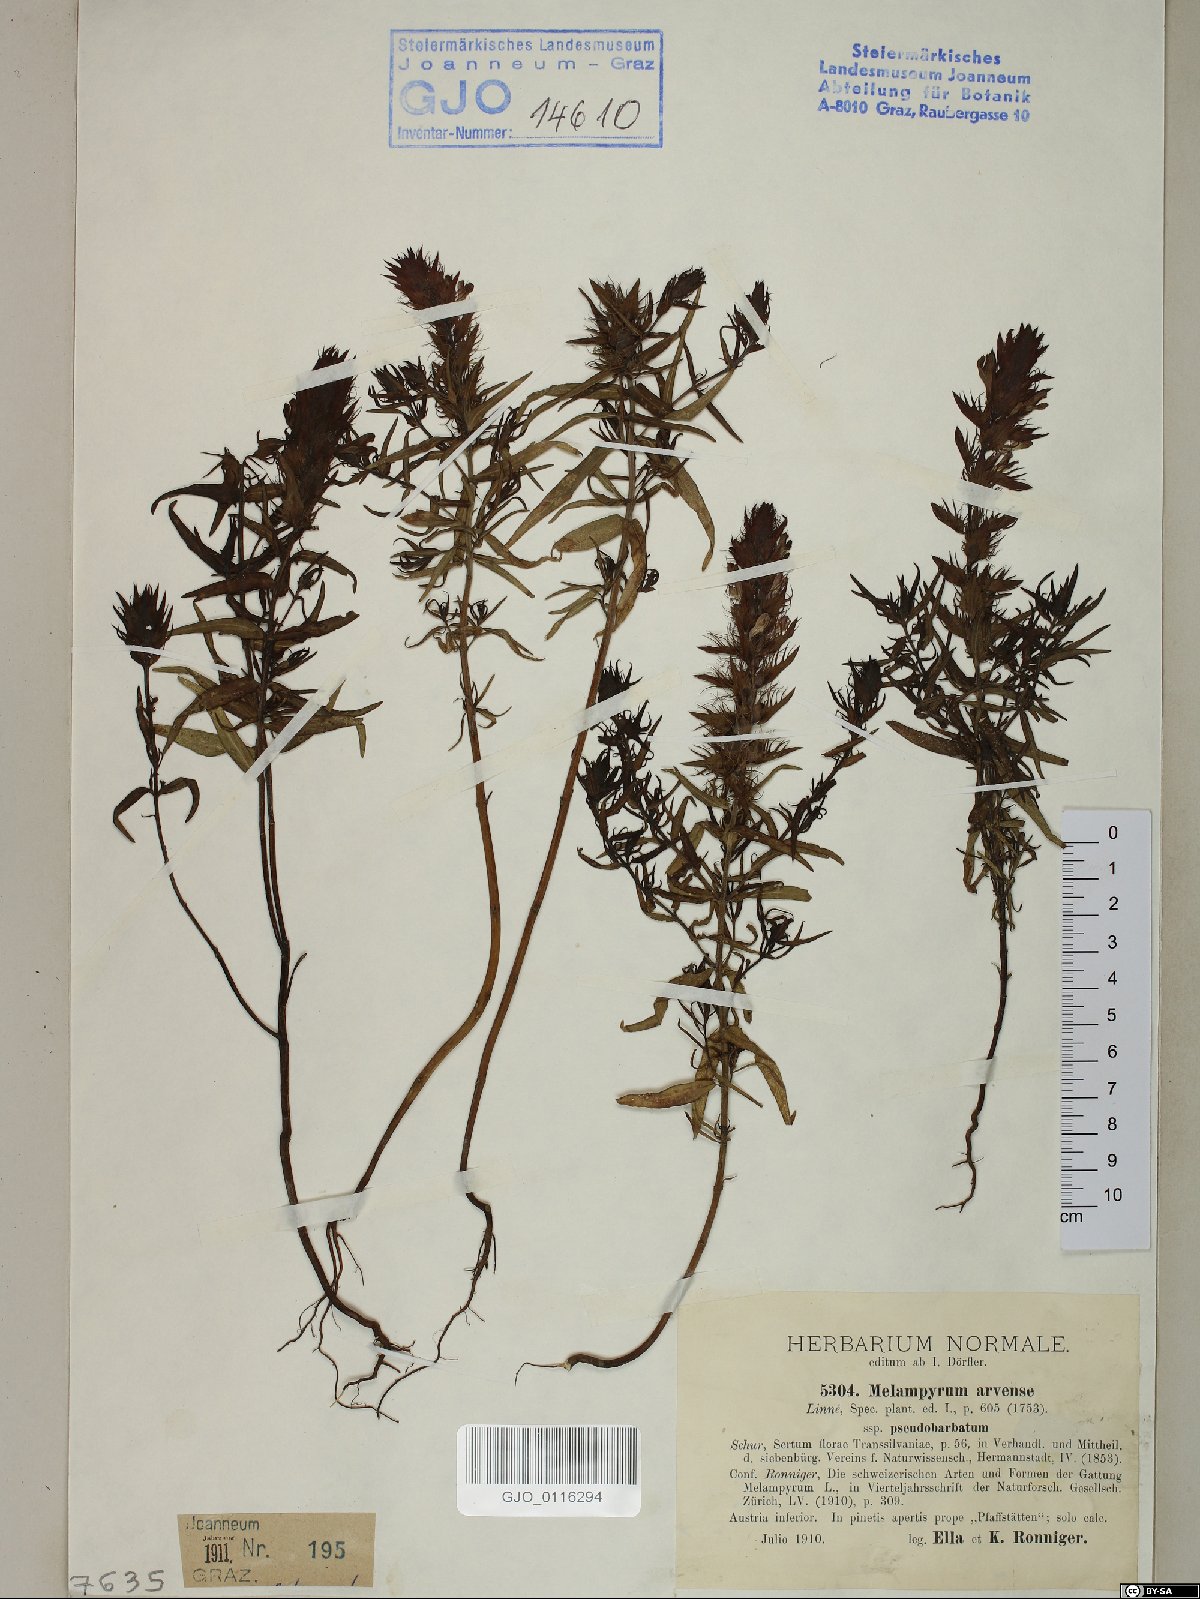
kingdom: Plantae
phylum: Tracheophyta
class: Magnoliopsida
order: Lamiales
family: Orobanchaceae
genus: Melampyrum
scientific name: Melampyrum arvense
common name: Field cow-wheat
